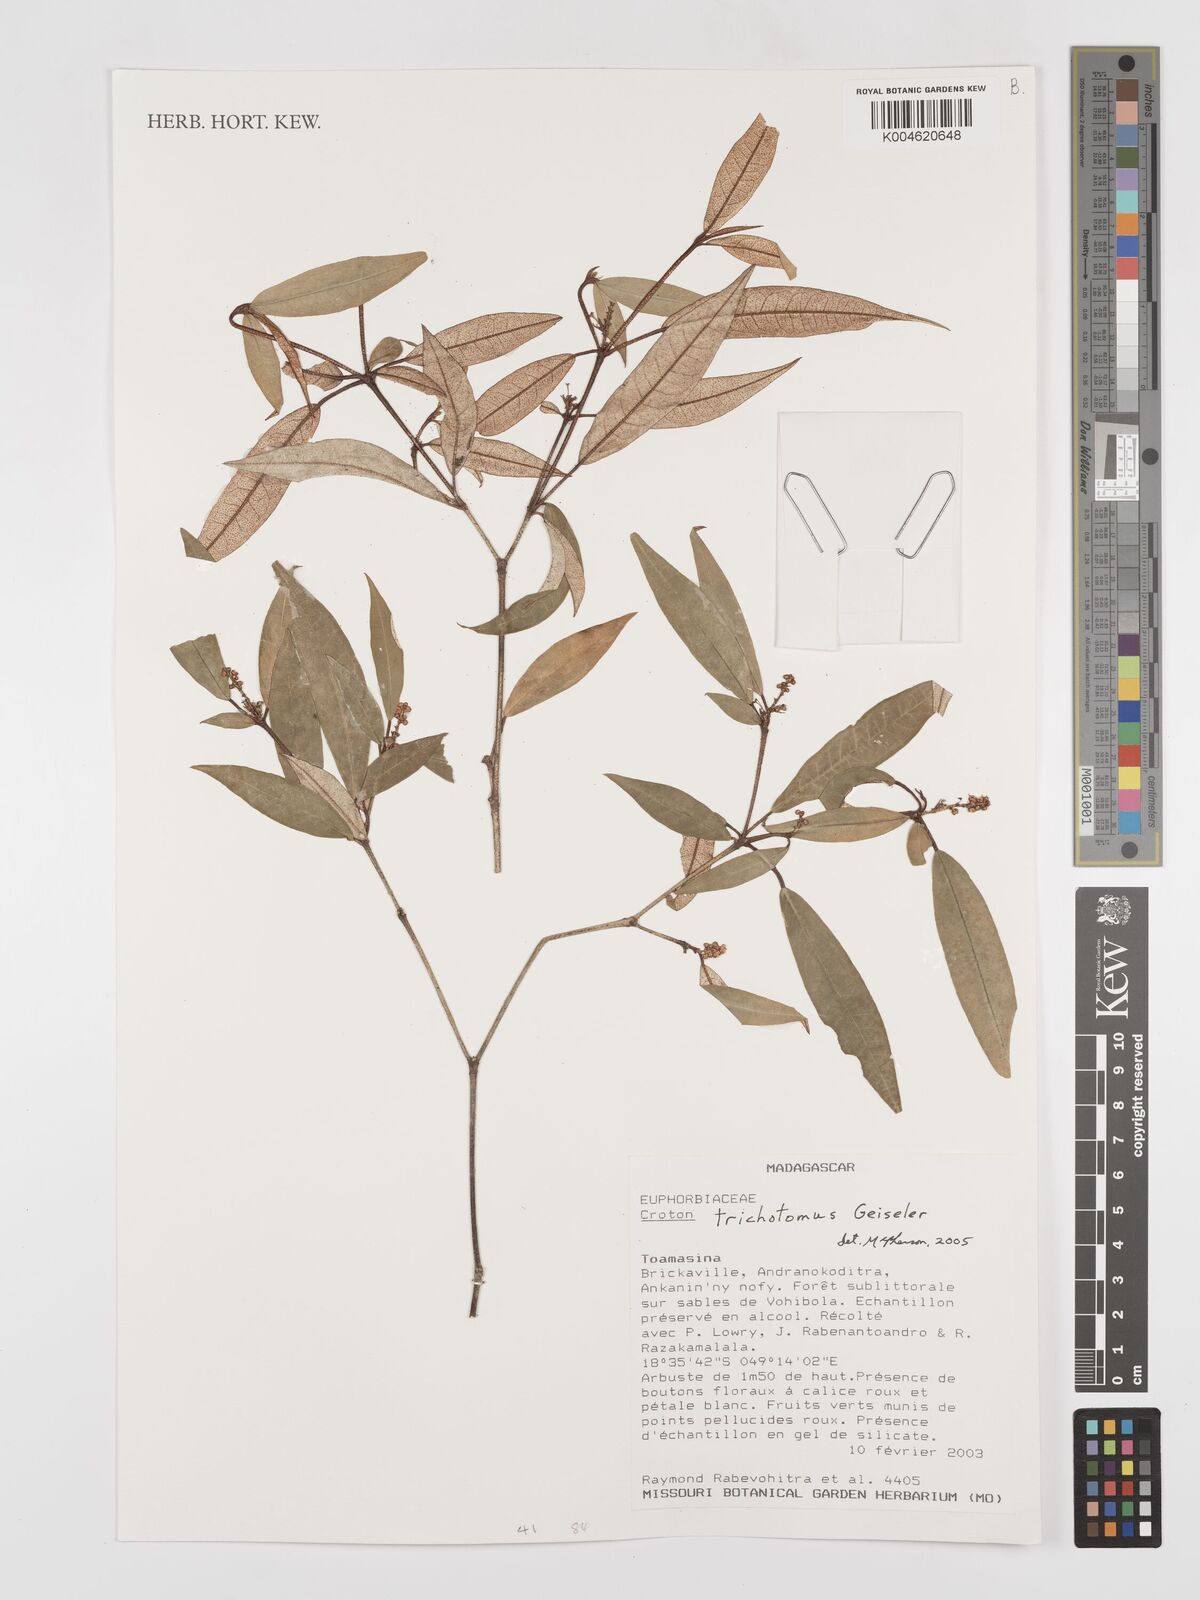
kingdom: Plantae
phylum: Tracheophyta
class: Magnoliopsida
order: Malpighiales
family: Euphorbiaceae
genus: Croton
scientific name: Croton trichotomus
